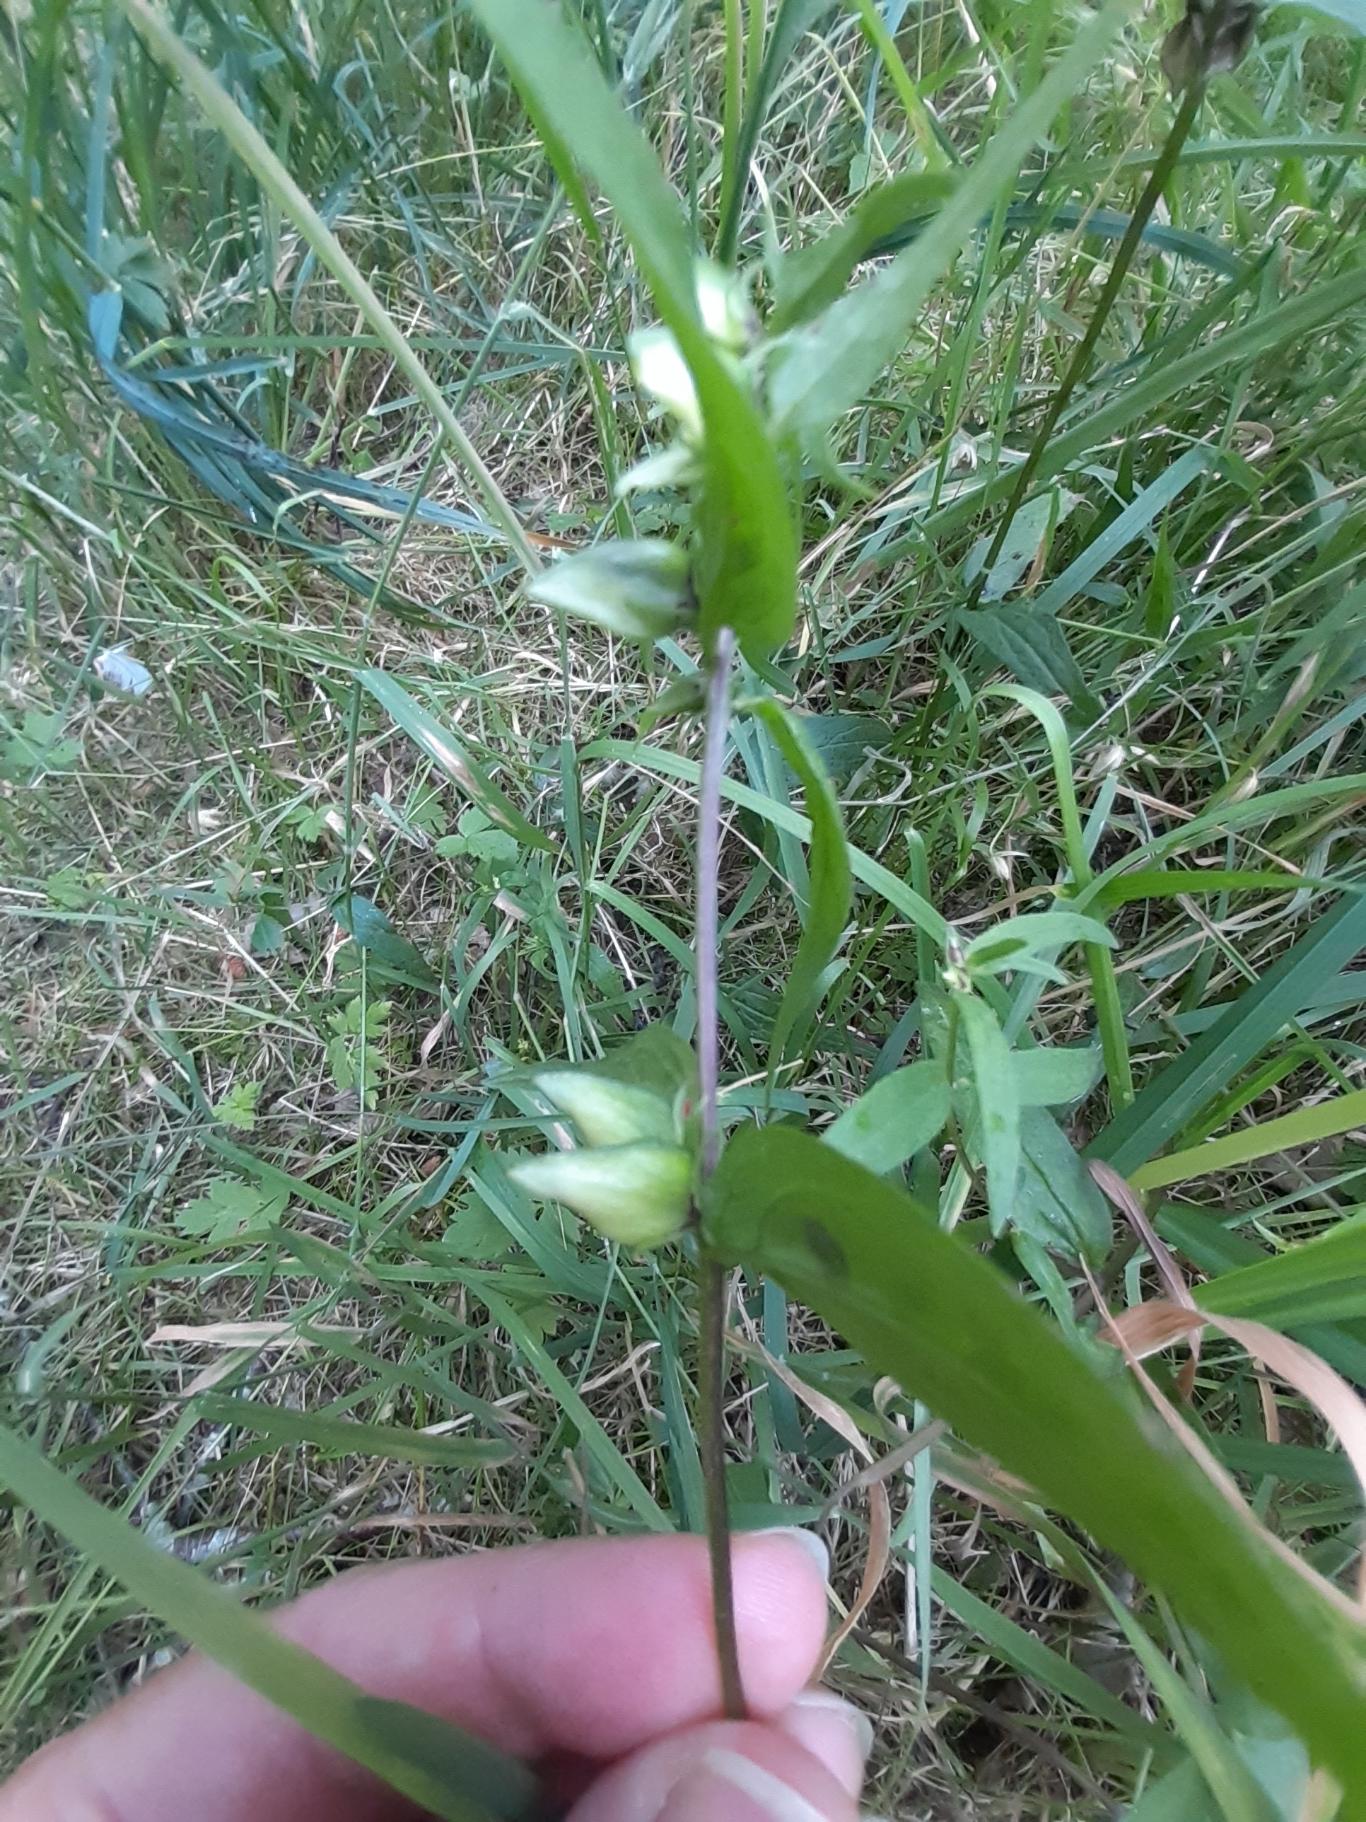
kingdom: Plantae
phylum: Tracheophyta
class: Magnoliopsida
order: Lamiales
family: Orobanchaceae
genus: Melampyrum
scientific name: Melampyrum pratense
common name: Almindelig kohvede
